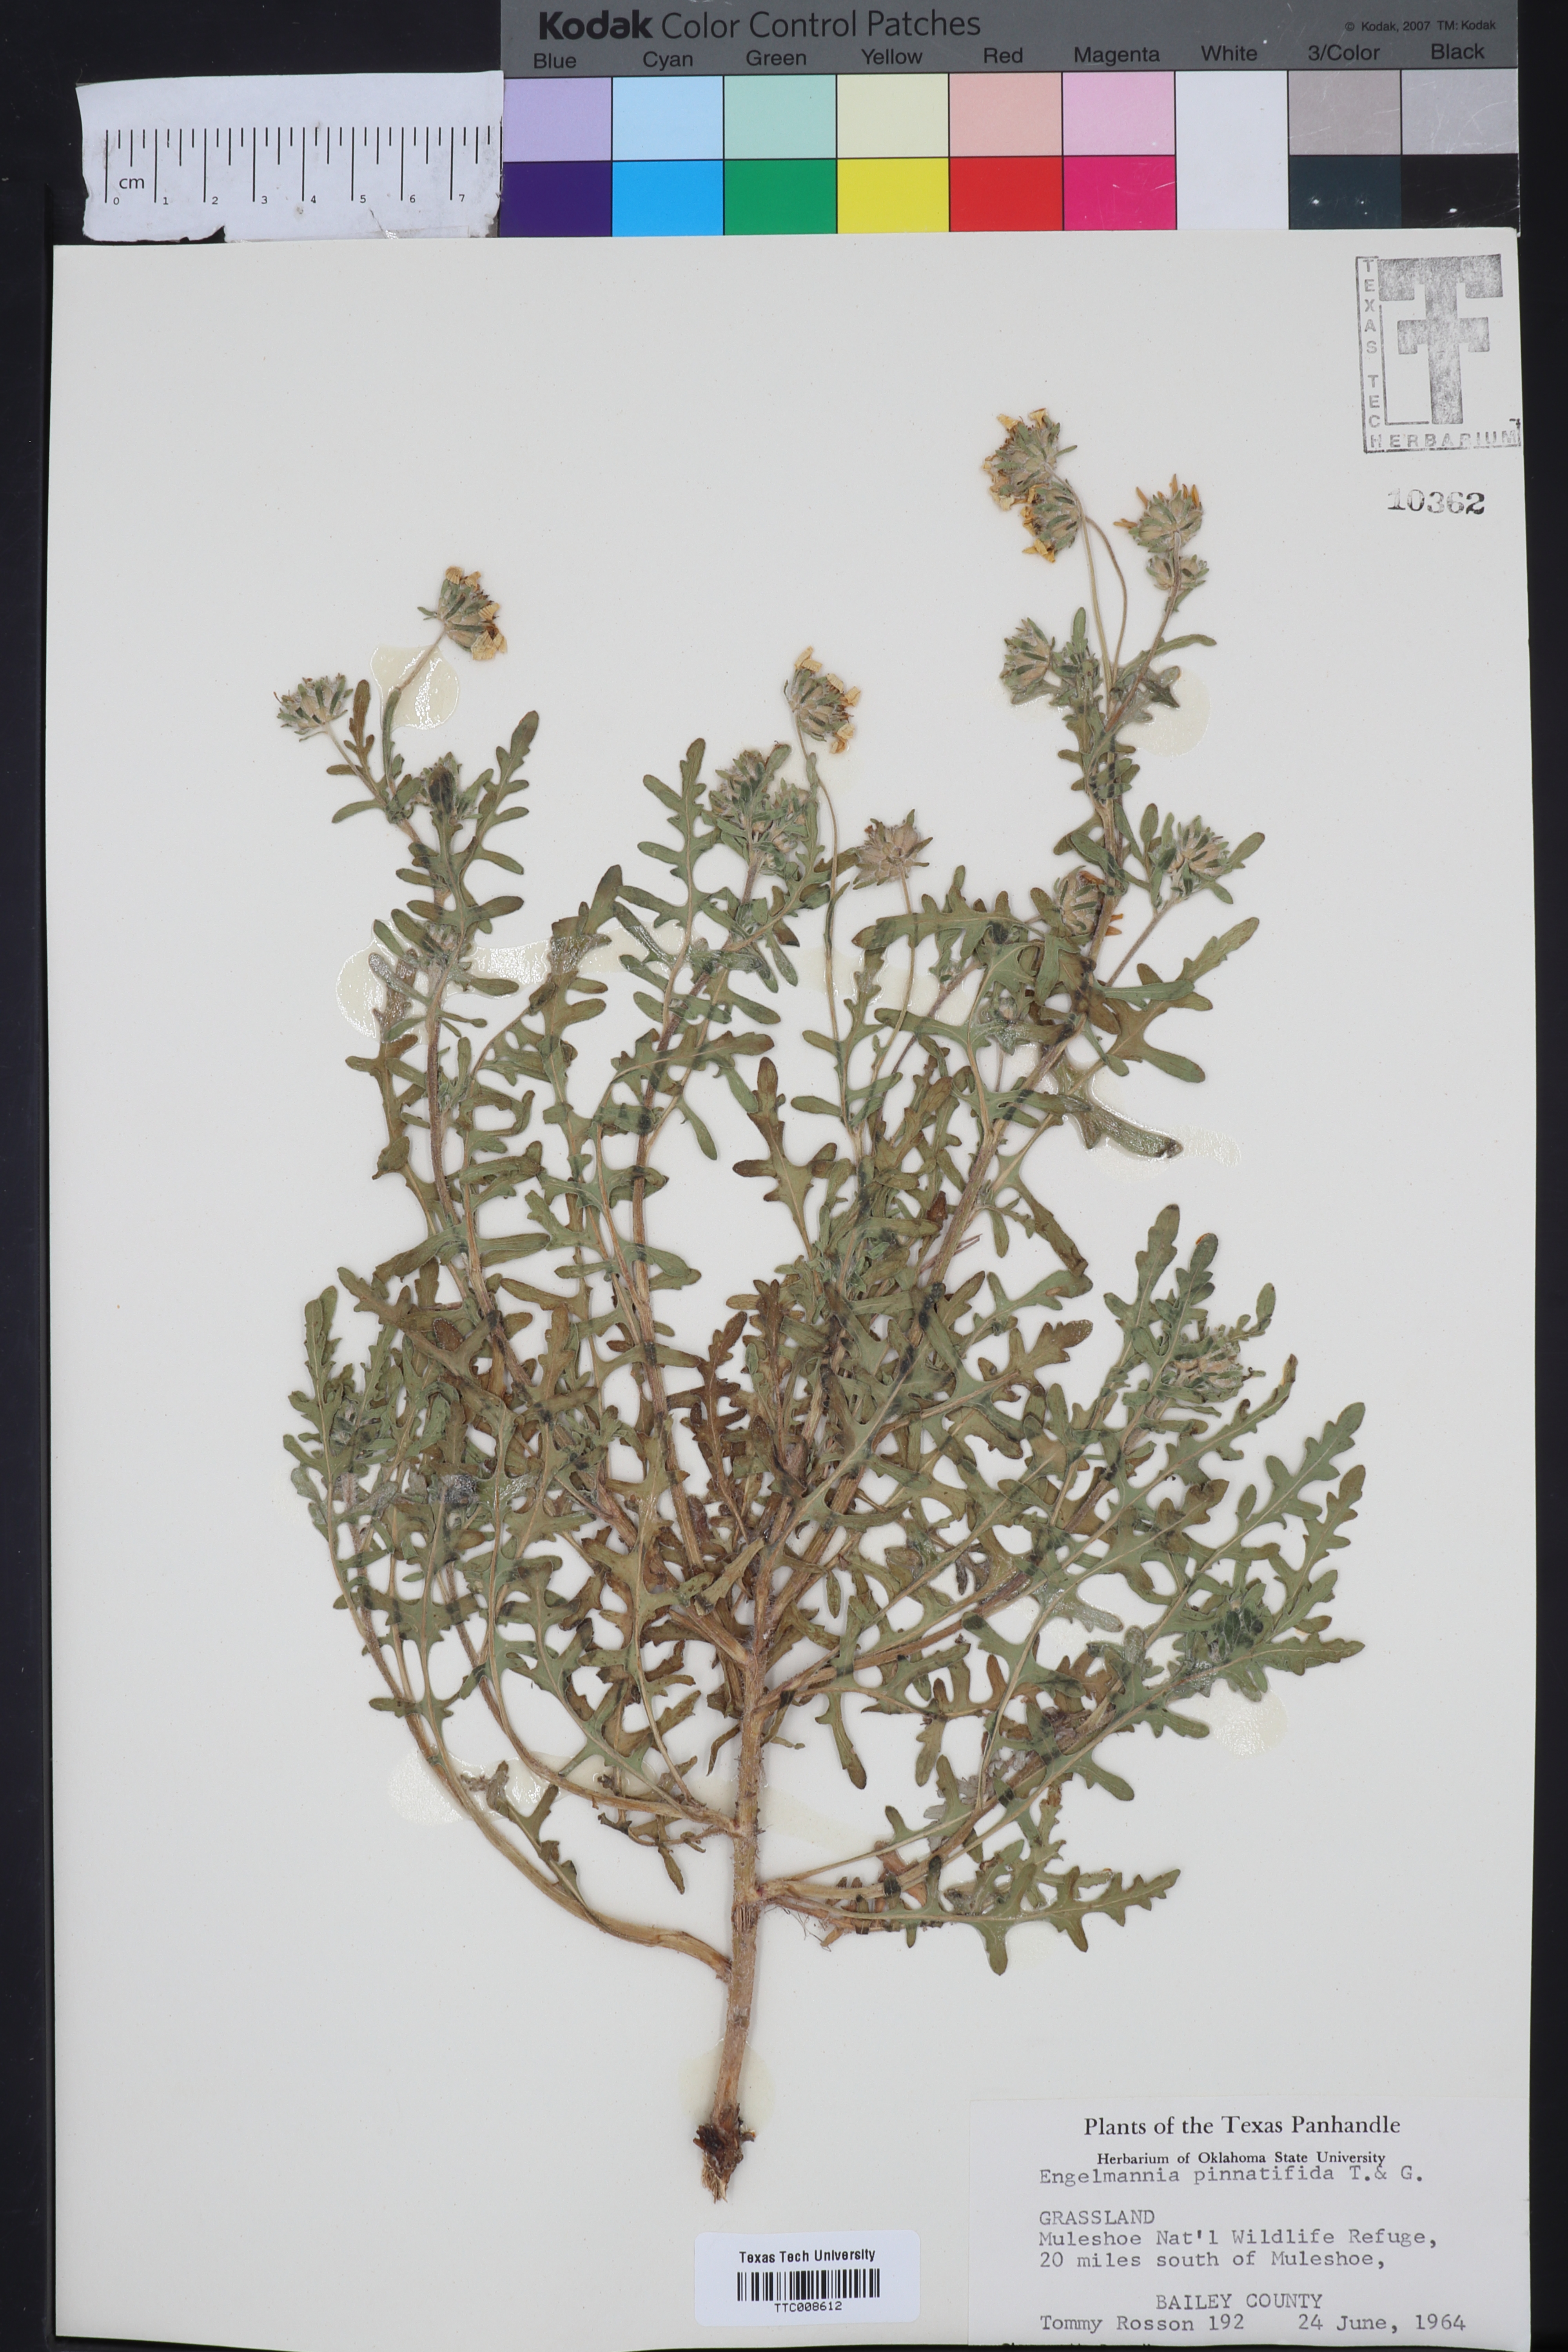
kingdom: Plantae
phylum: Tracheophyta
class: Magnoliopsida
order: Asterales
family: Asteraceae
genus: Engelmannia
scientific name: Engelmannia peristenia
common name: Engelmann's daisy
